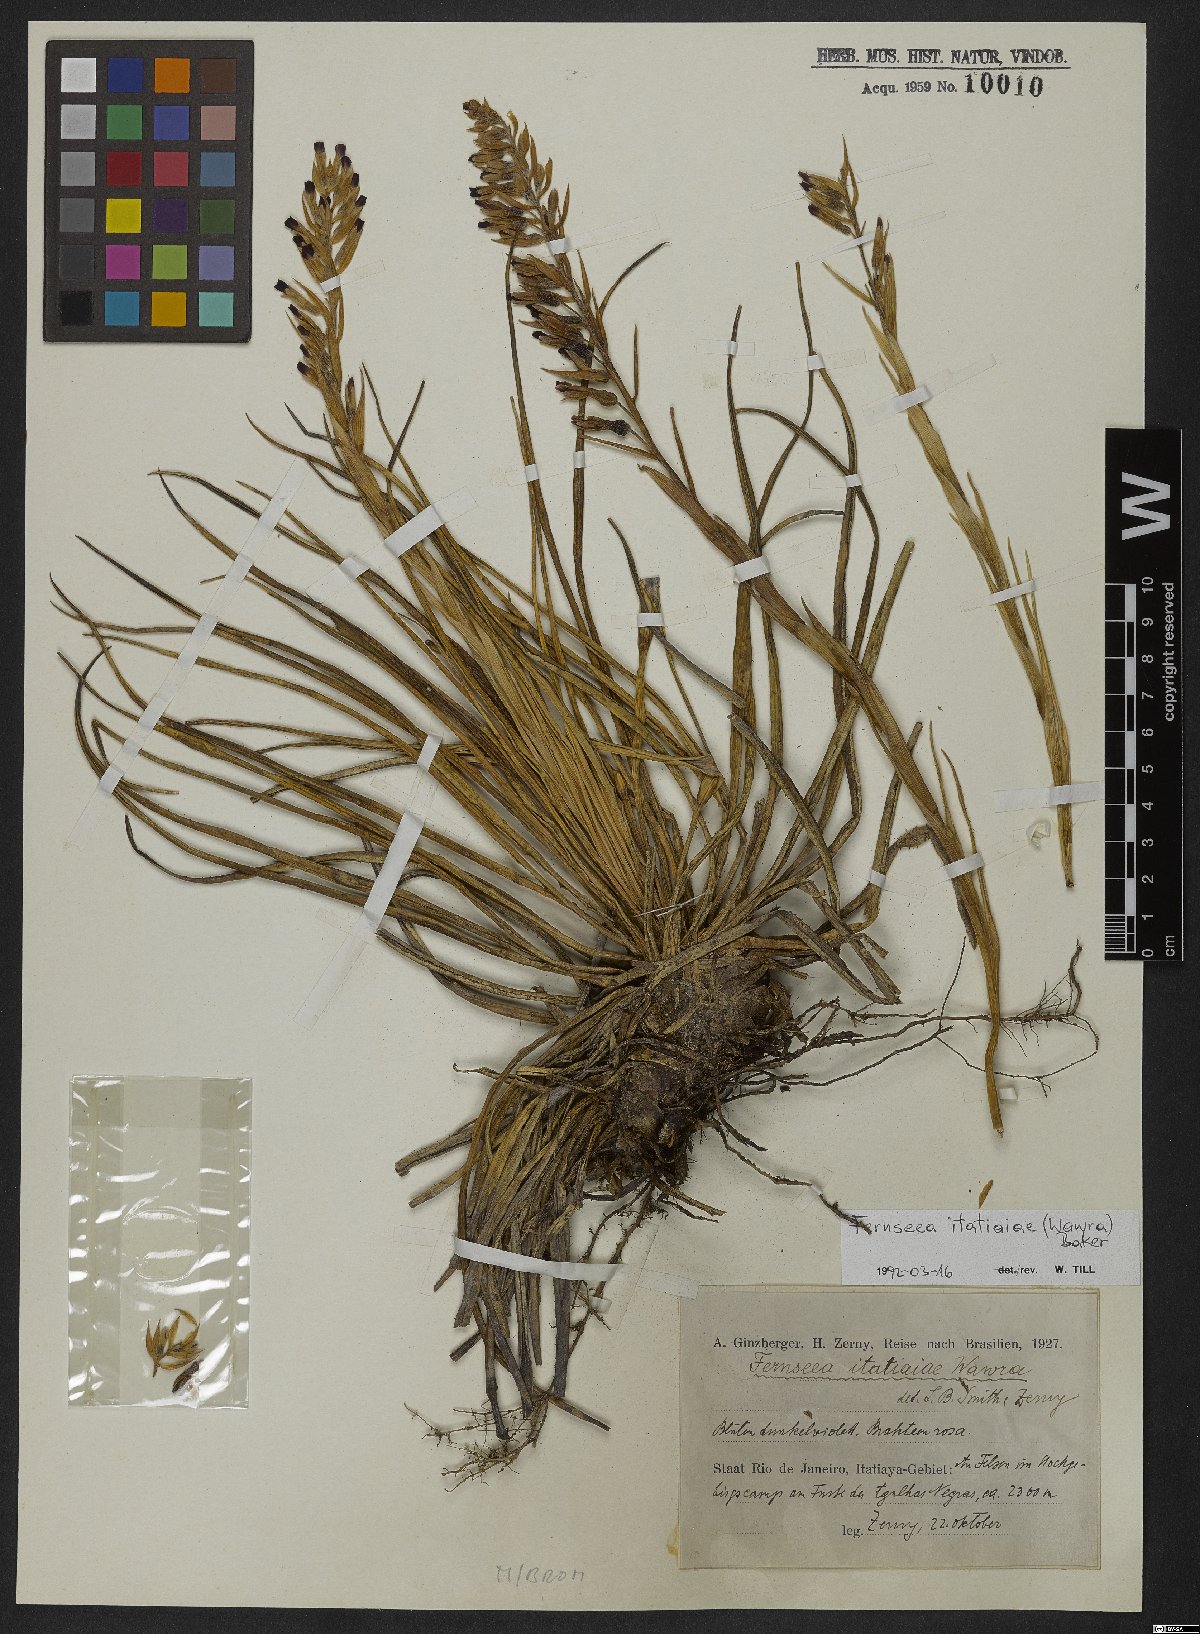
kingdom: Plantae
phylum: Tracheophyta
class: Liliopsida
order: Poales
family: Bromeliaceae
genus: Fernseea
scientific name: Fernseea itatiaiae
